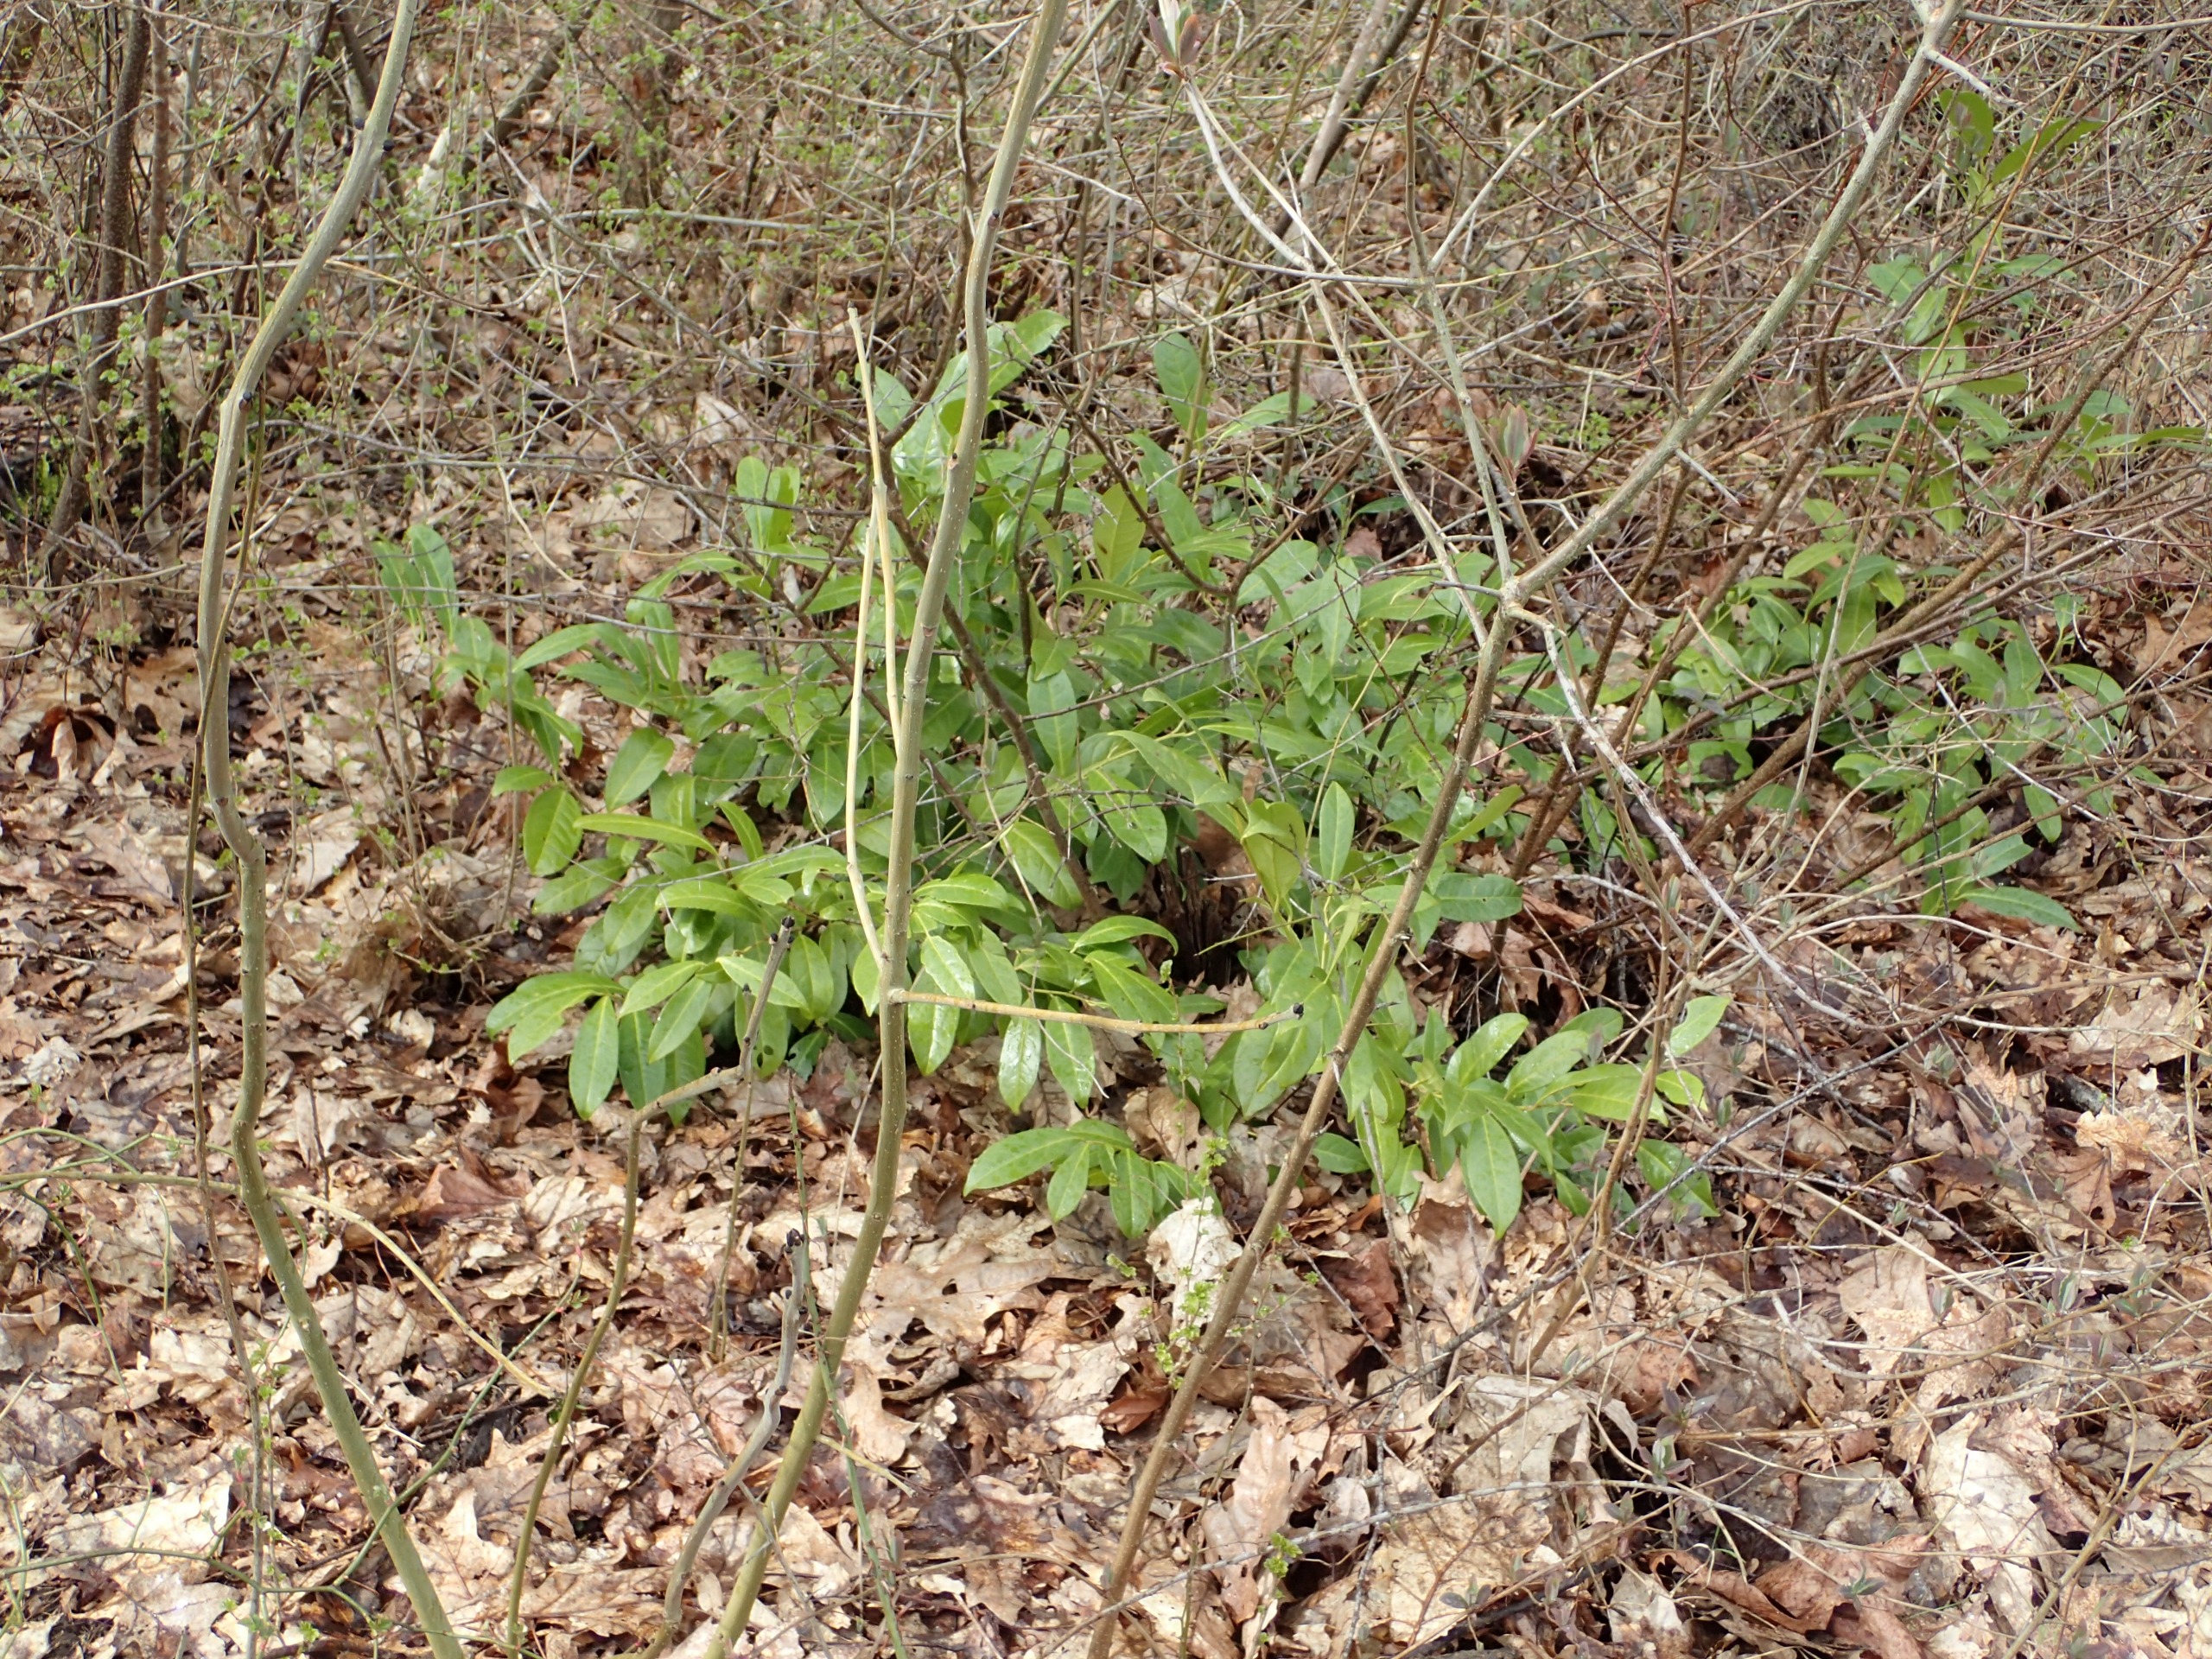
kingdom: Plantae
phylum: Tracheophyta
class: Magnoliopsida
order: Rosales
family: Rosaceae
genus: Prunus
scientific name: Prunus laurocerasus
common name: Laurbærkirsebær
